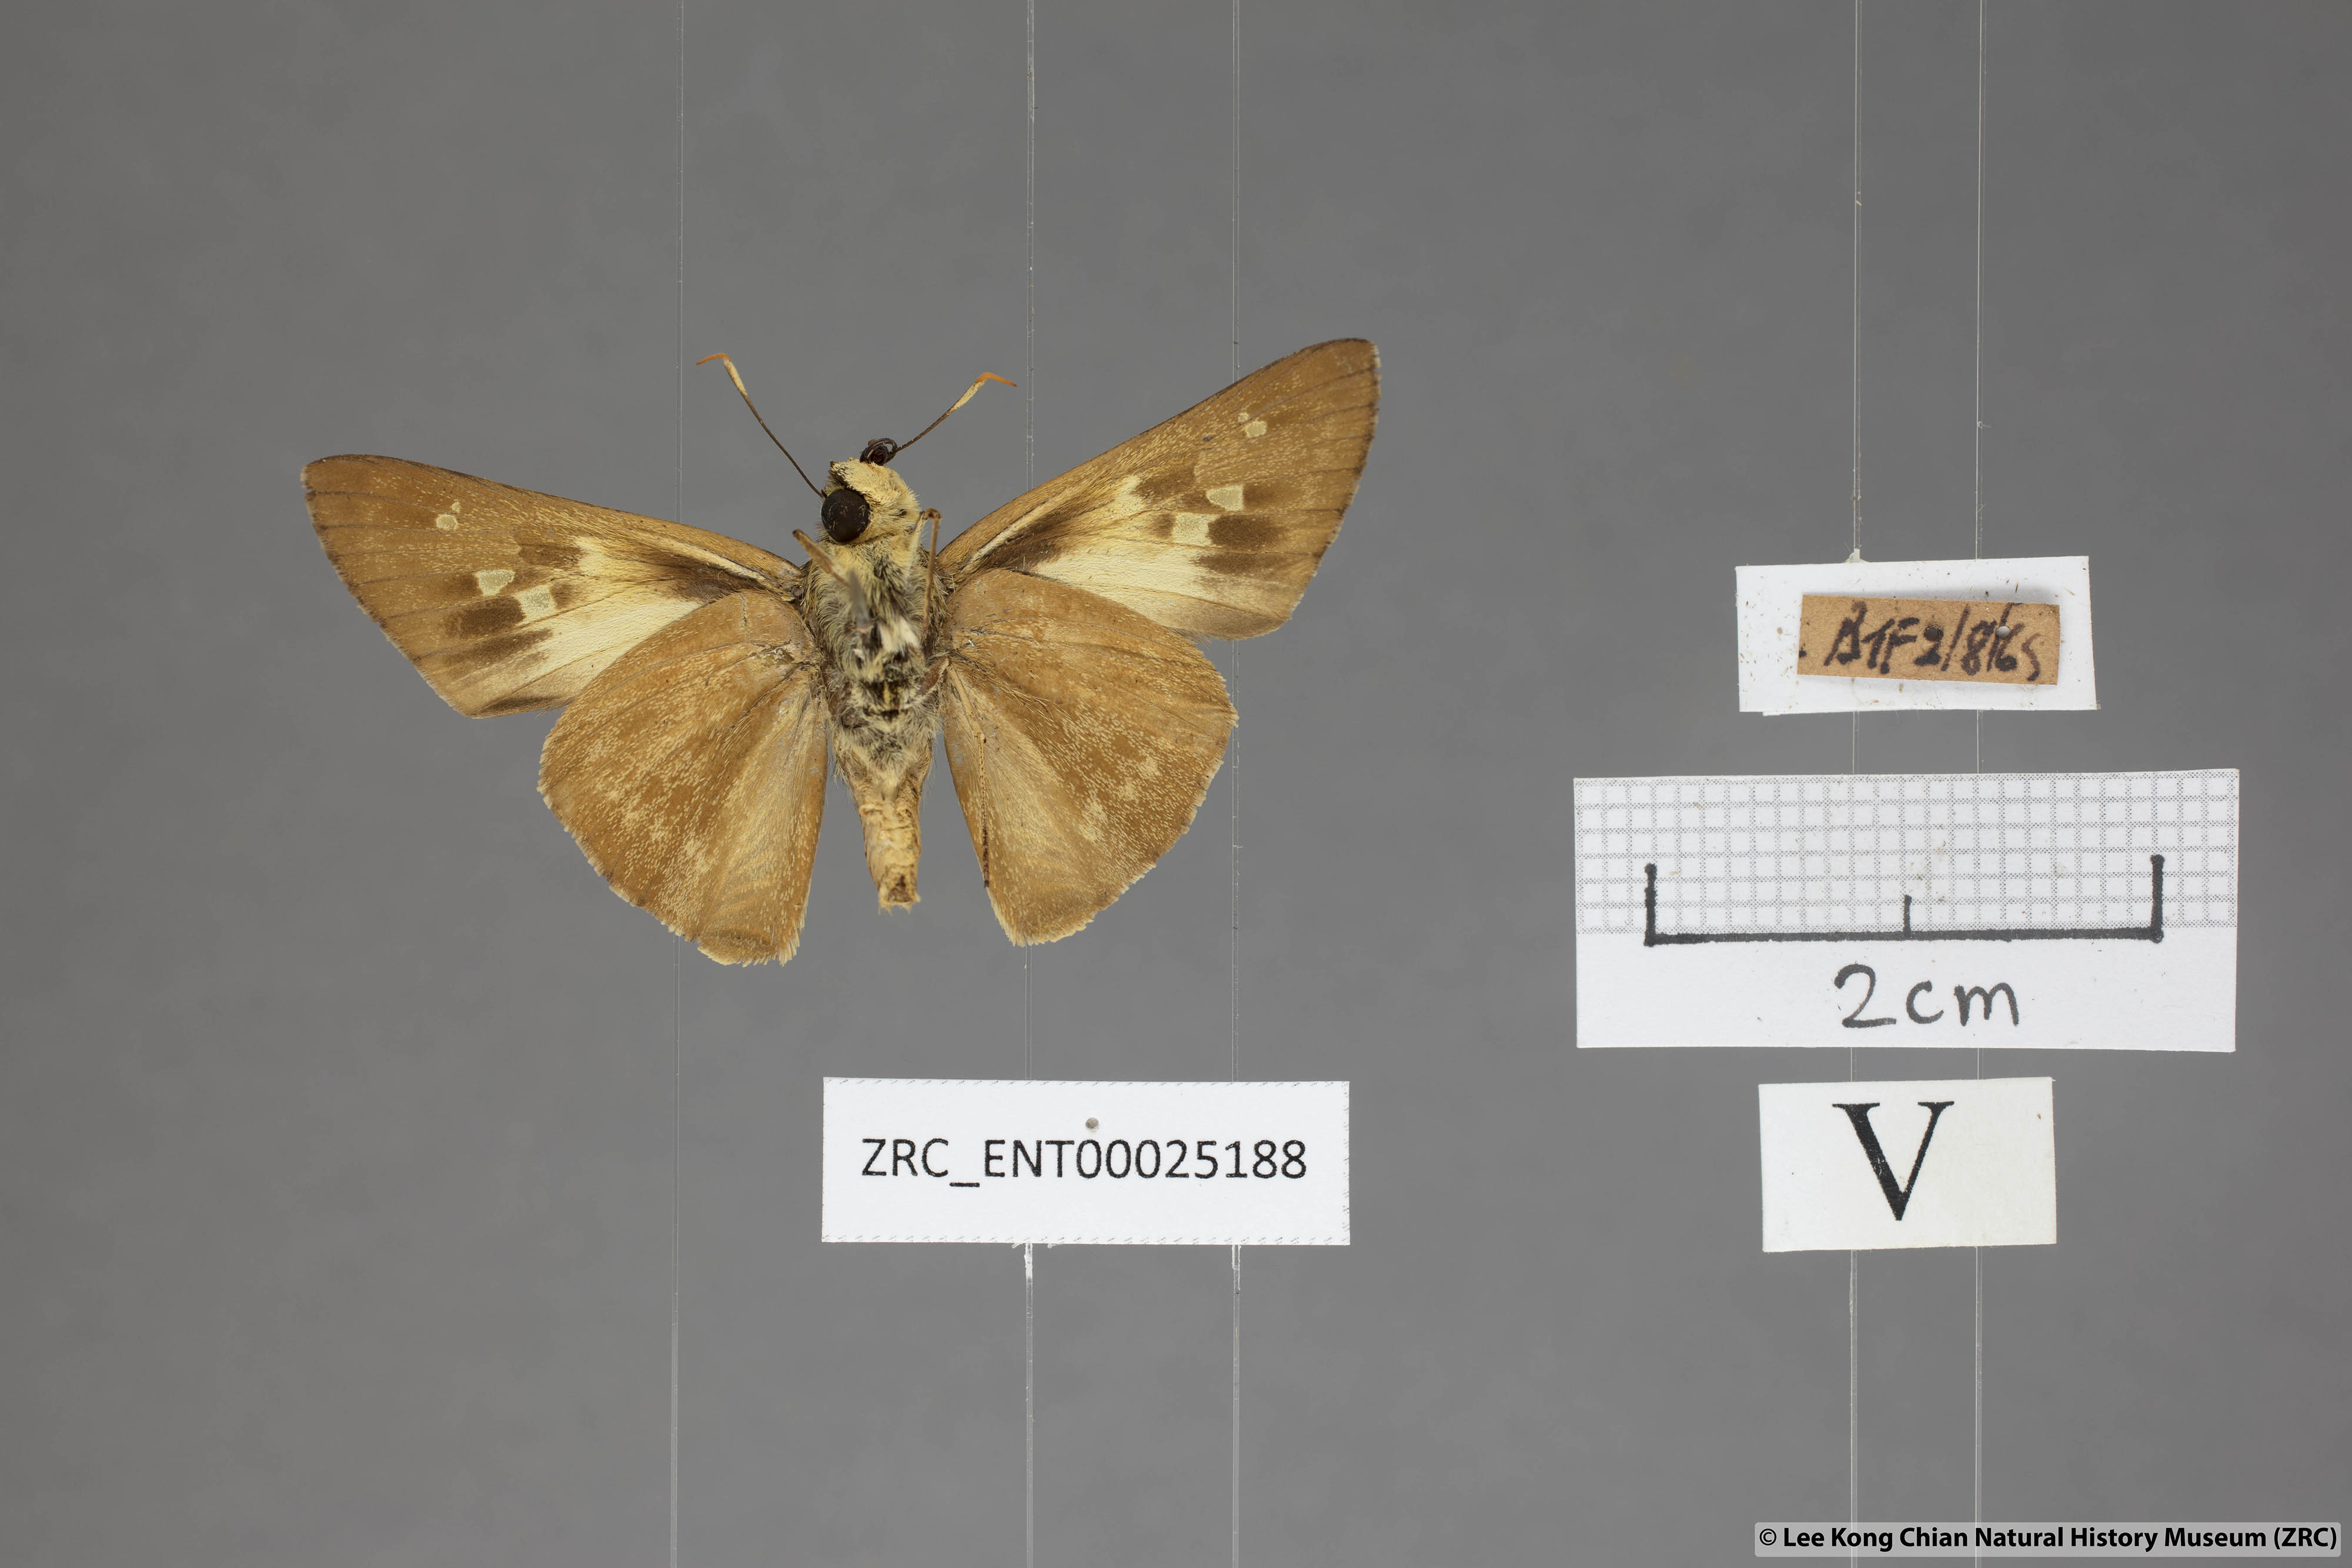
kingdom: Animalia
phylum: Arthropoda
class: Insecta
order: Lepidoptera
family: Hesperiidae
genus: Pithauria
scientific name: Pithauria stramineipennis
